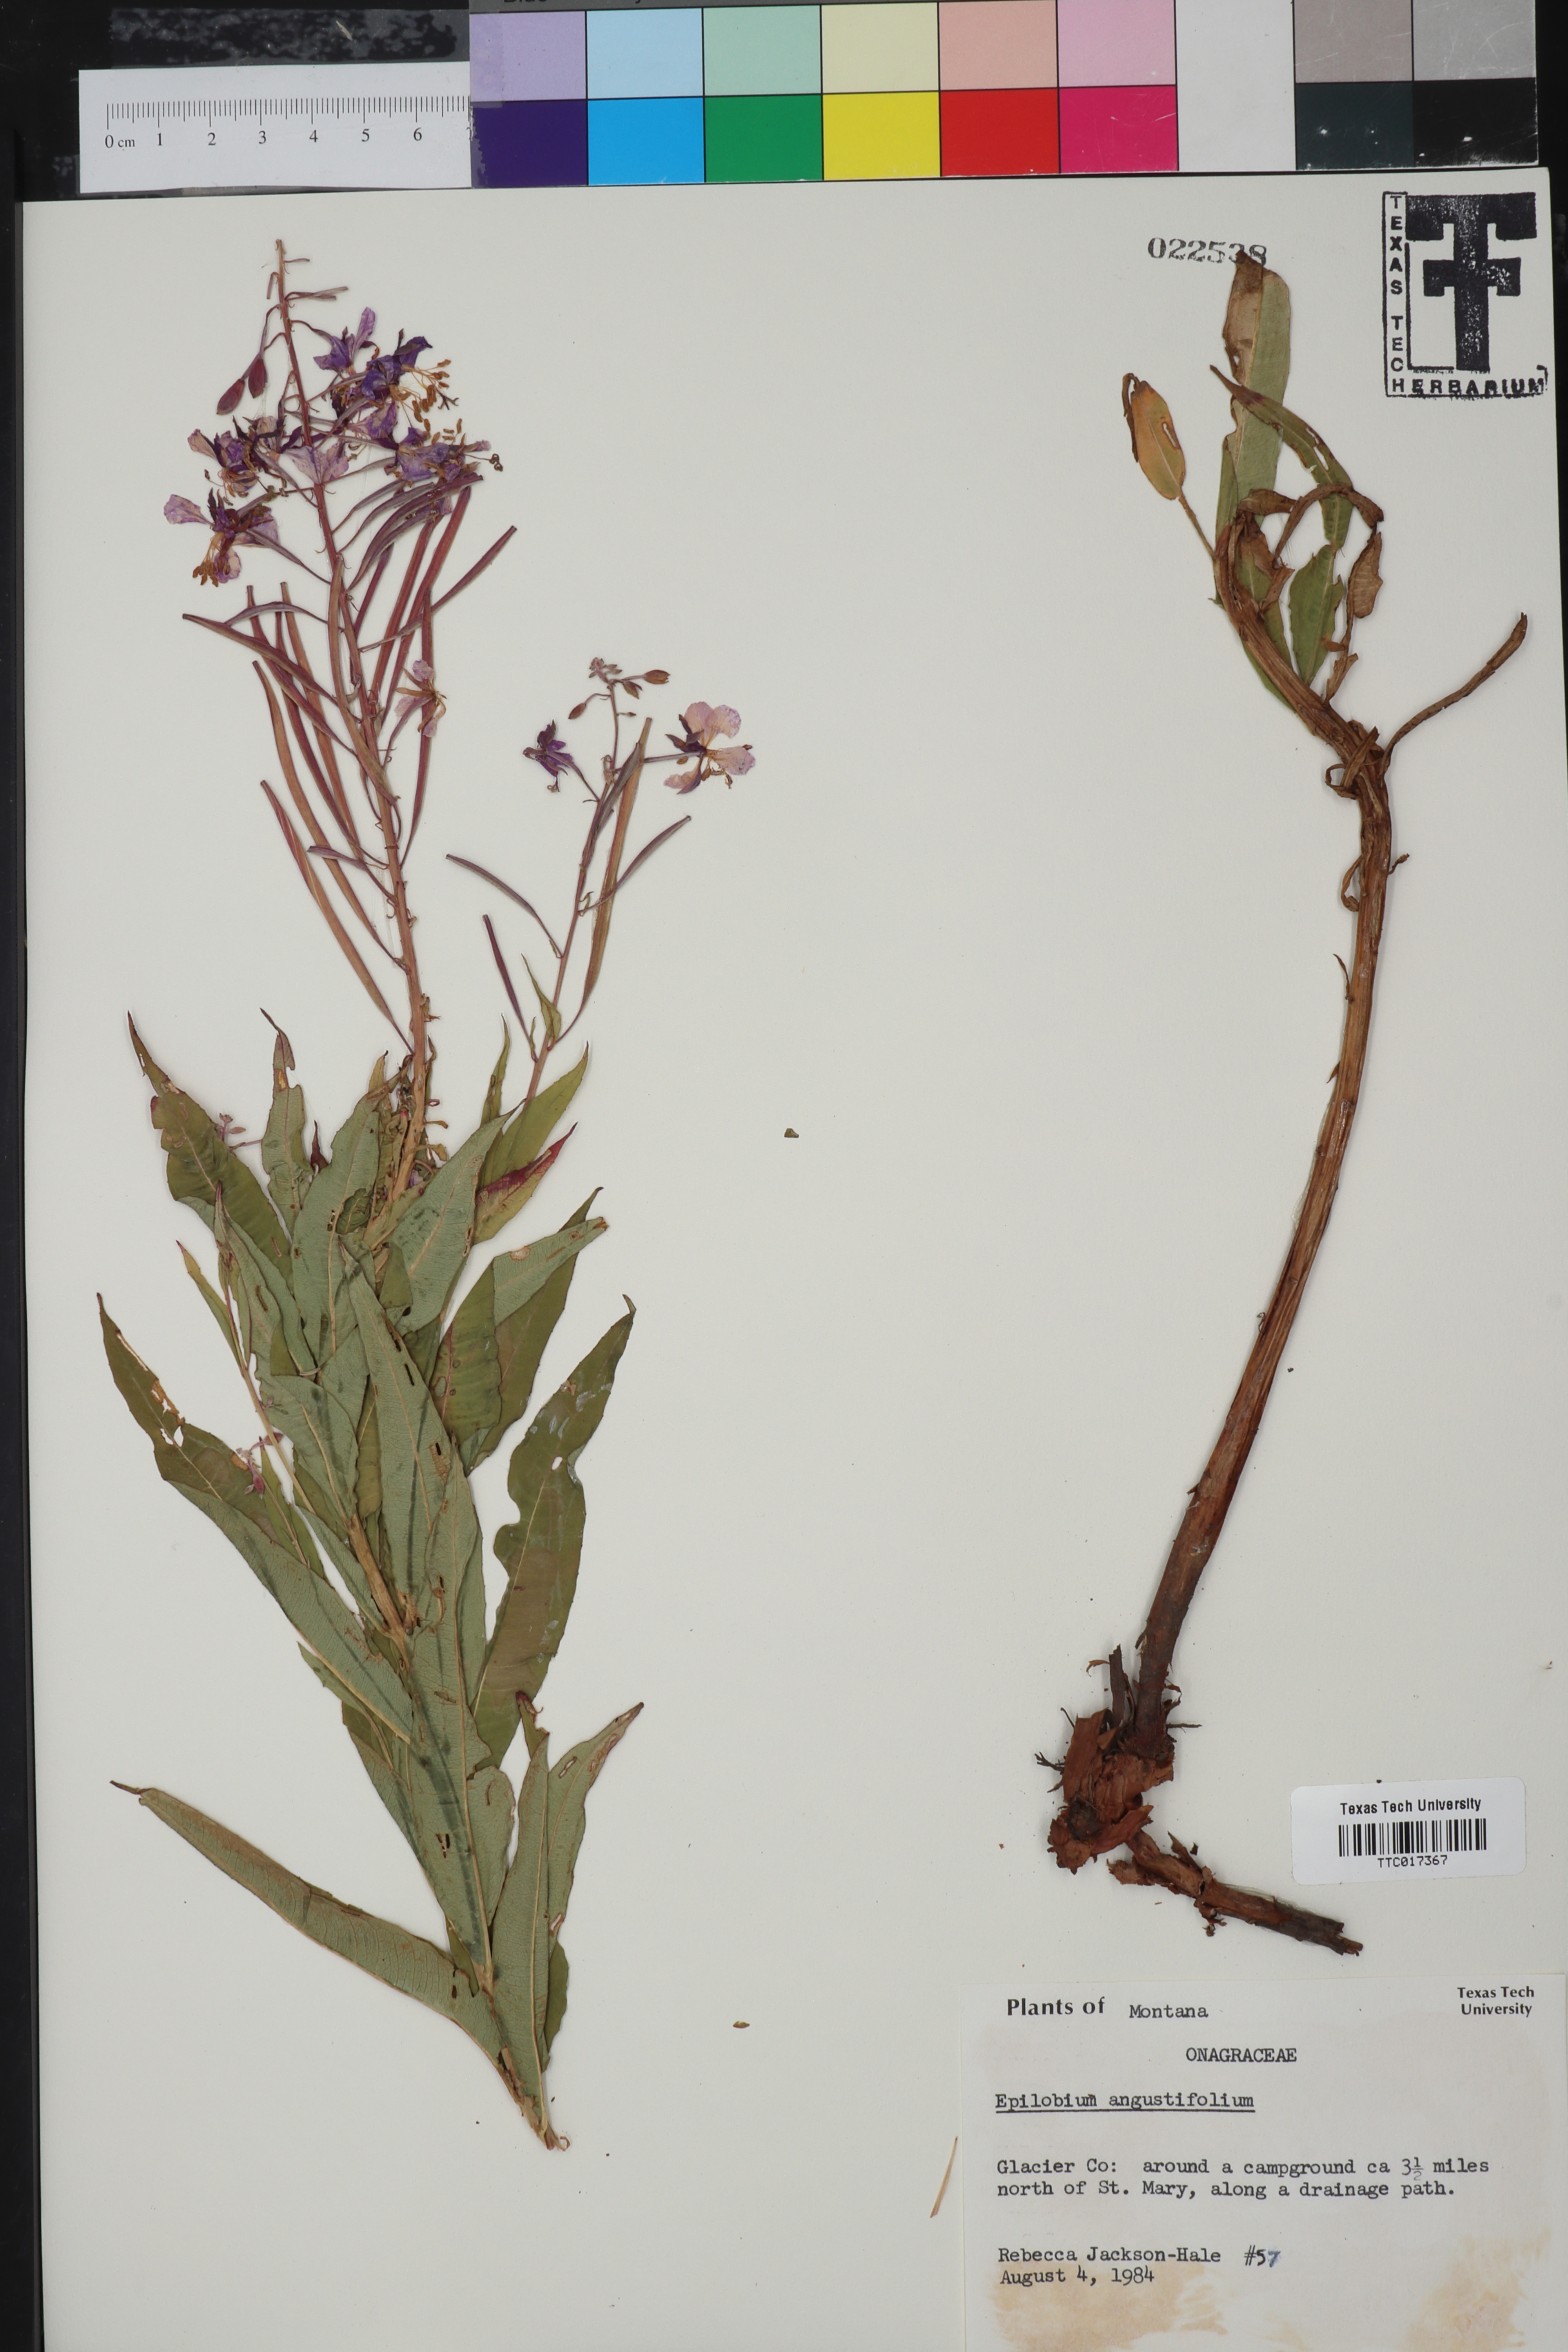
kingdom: Plantae
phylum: Tracheophyta
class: Magnoliopsida
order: Myrtales
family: Onagraceae
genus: Chamaenerion
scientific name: Chamaenerion dodonaei
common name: Rosemary-leaved willowherb
